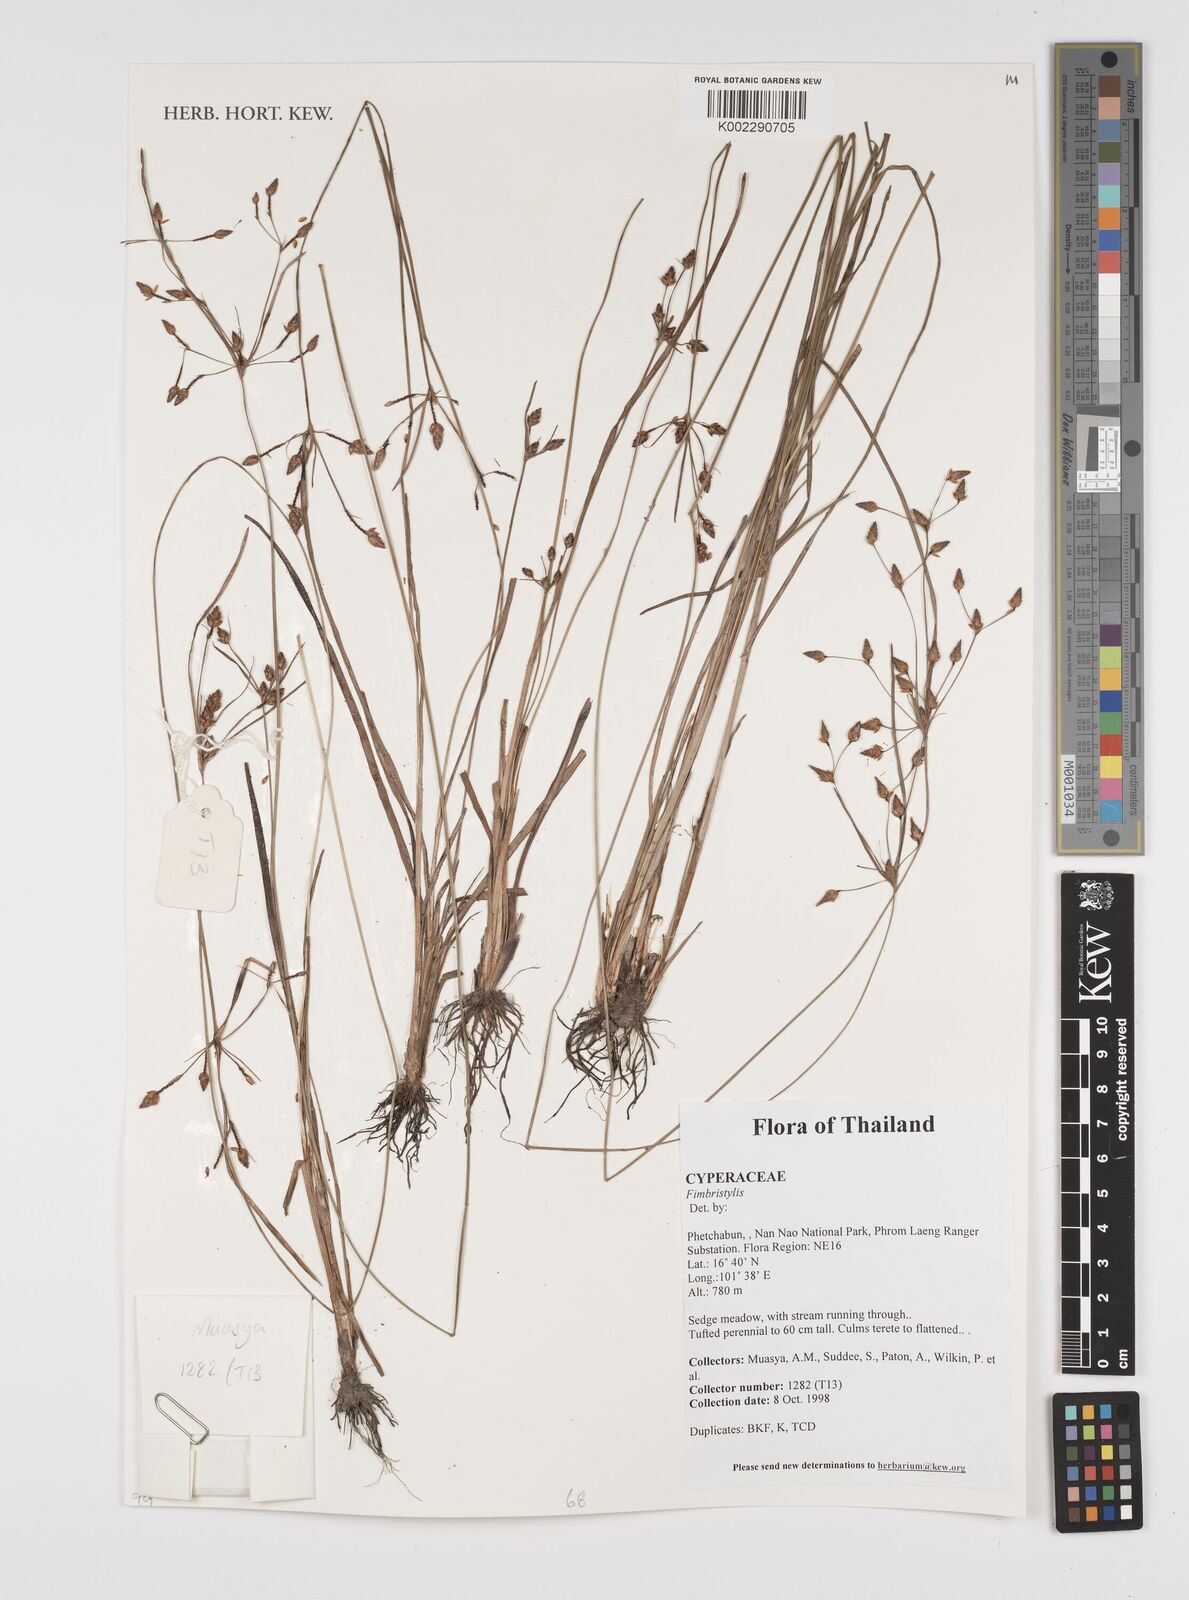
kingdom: Plantae
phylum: Tracheophyta
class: Liliopsida
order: Poales
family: Cyperaceae
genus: Fimbristylis
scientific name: Fimbristylis
